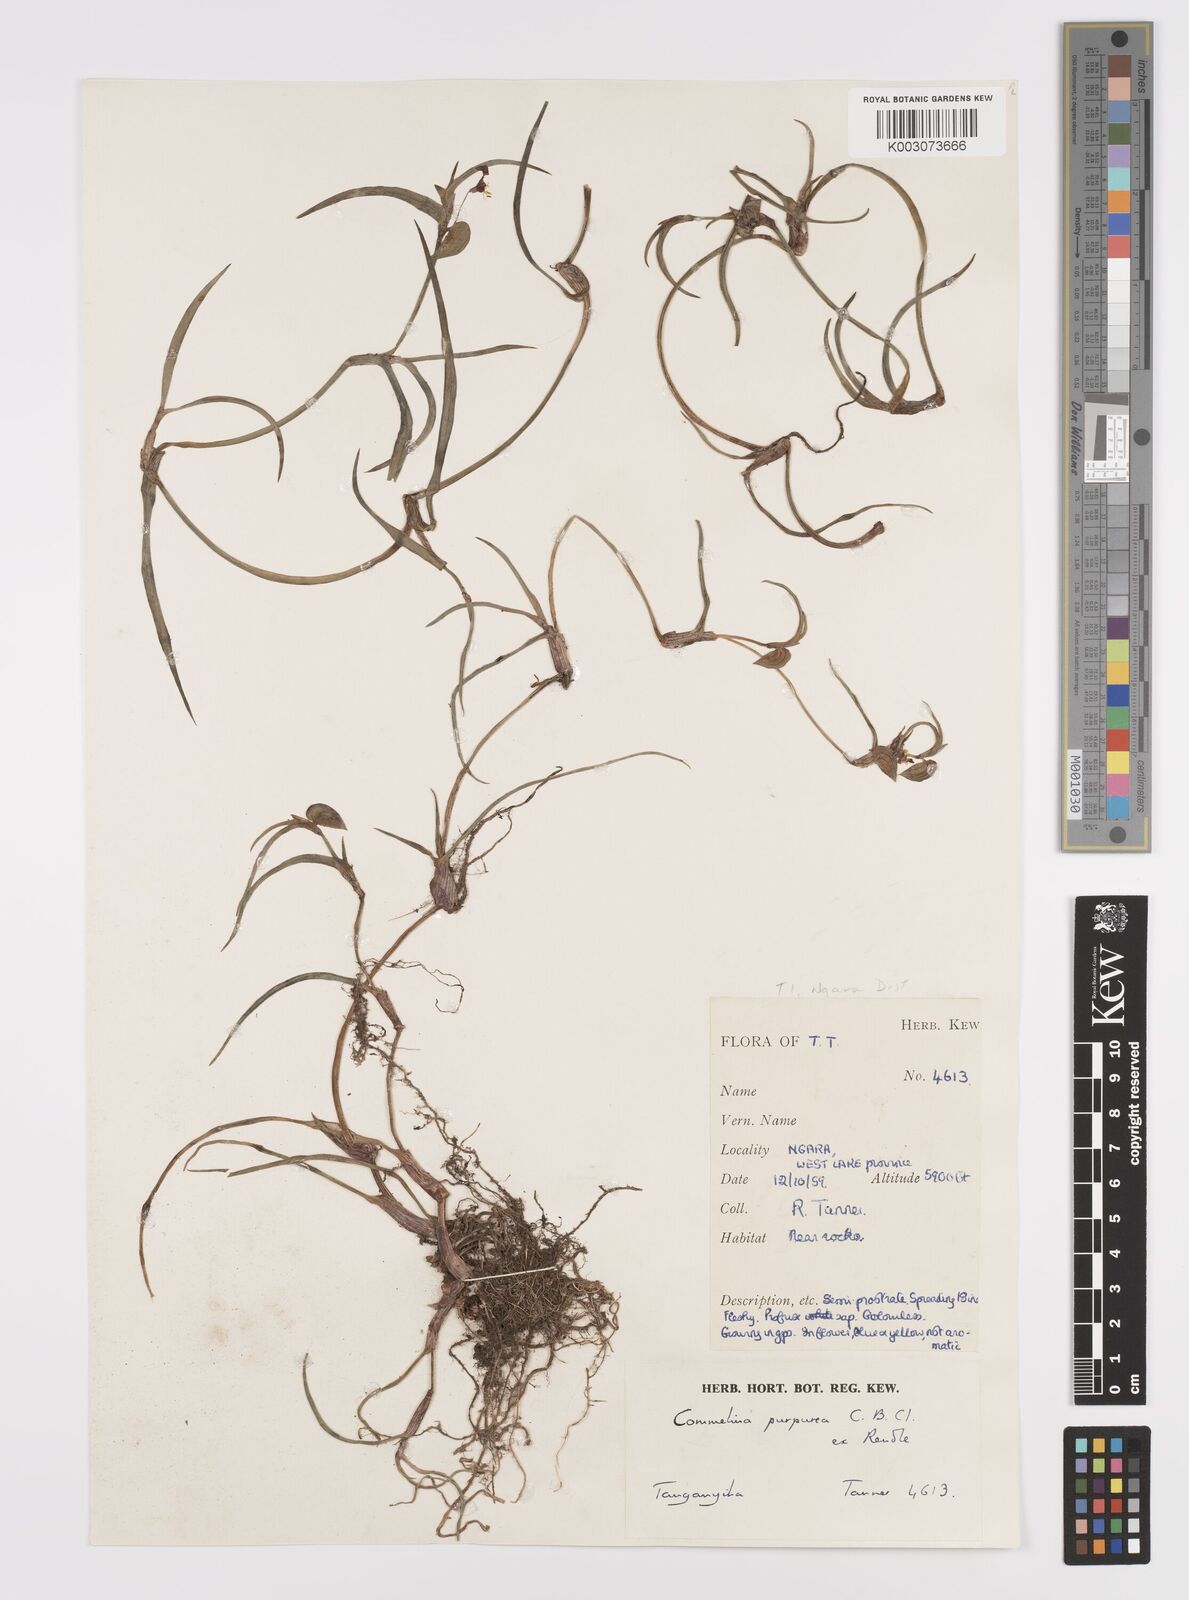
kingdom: Plantae
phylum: Tracheophyta
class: Liliopsida
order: Commelinales
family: Commelinaceae
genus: Commelina
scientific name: Commelina purpurea
